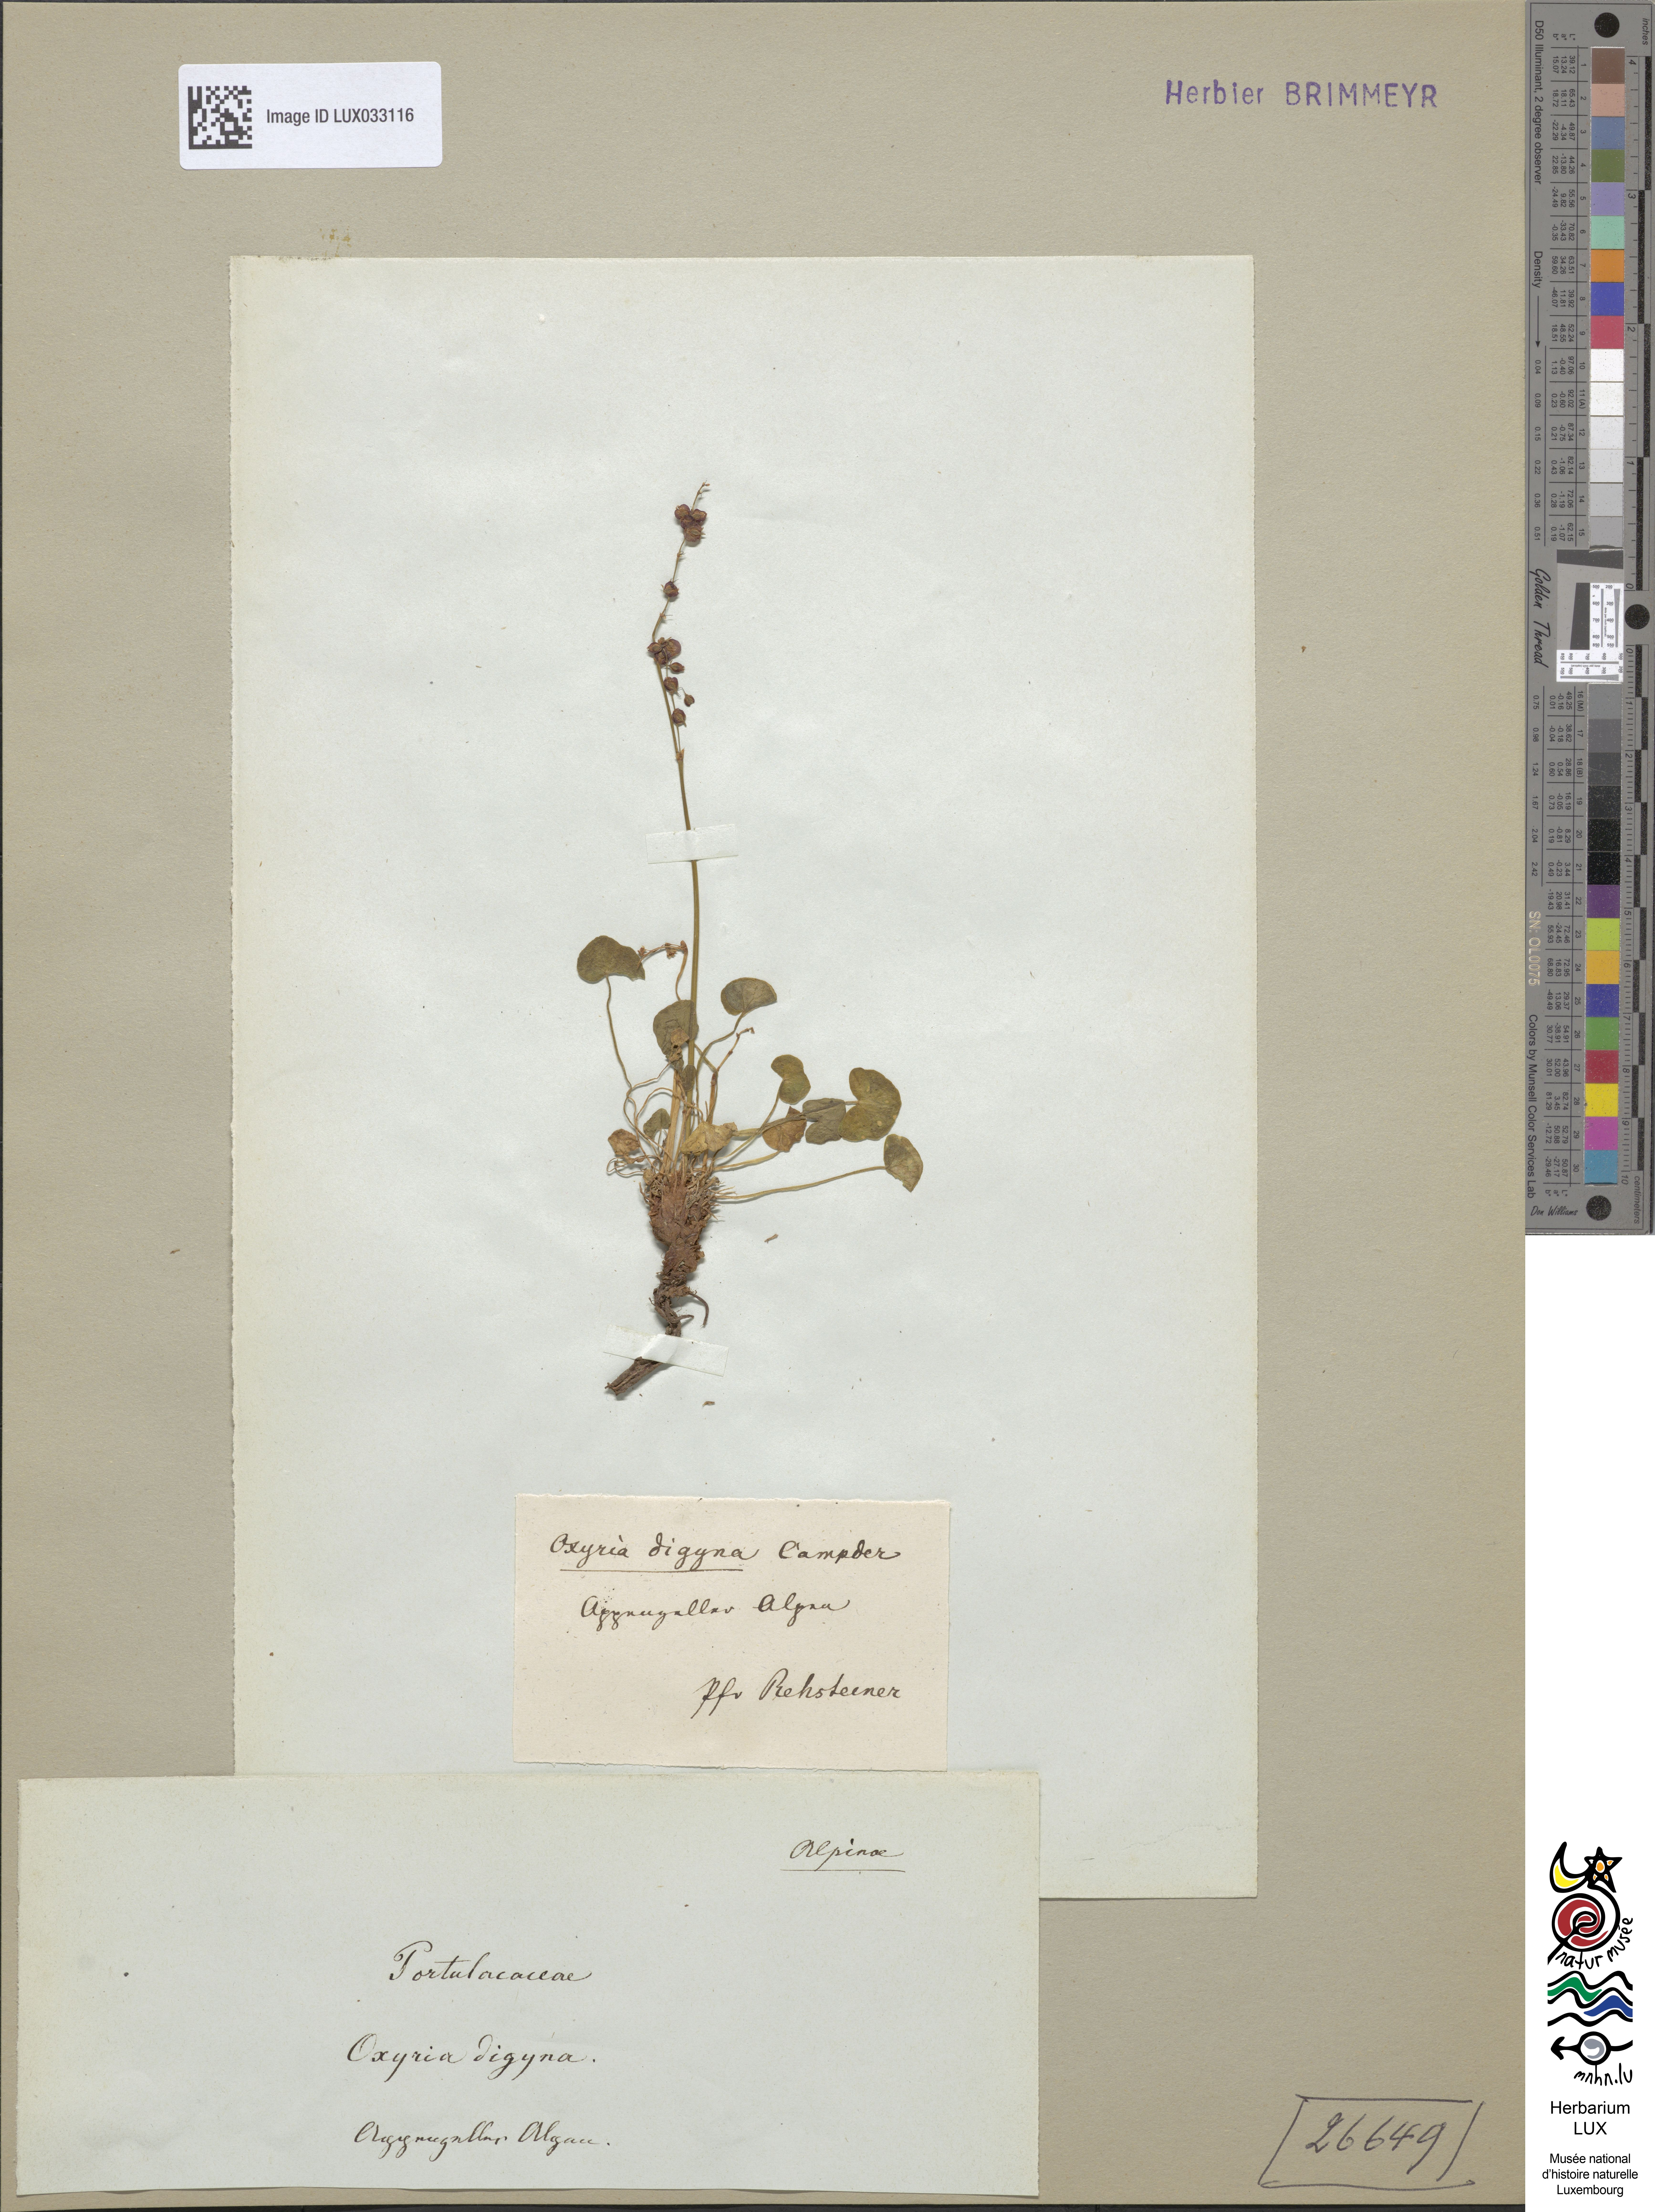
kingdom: Plantae
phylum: Tracheophyta
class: Magnoliopsida
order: Caryophyllales
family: Polygonaceae
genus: Oxyria
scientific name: Oxyria digyna
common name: Alpine mountain-sorrel
